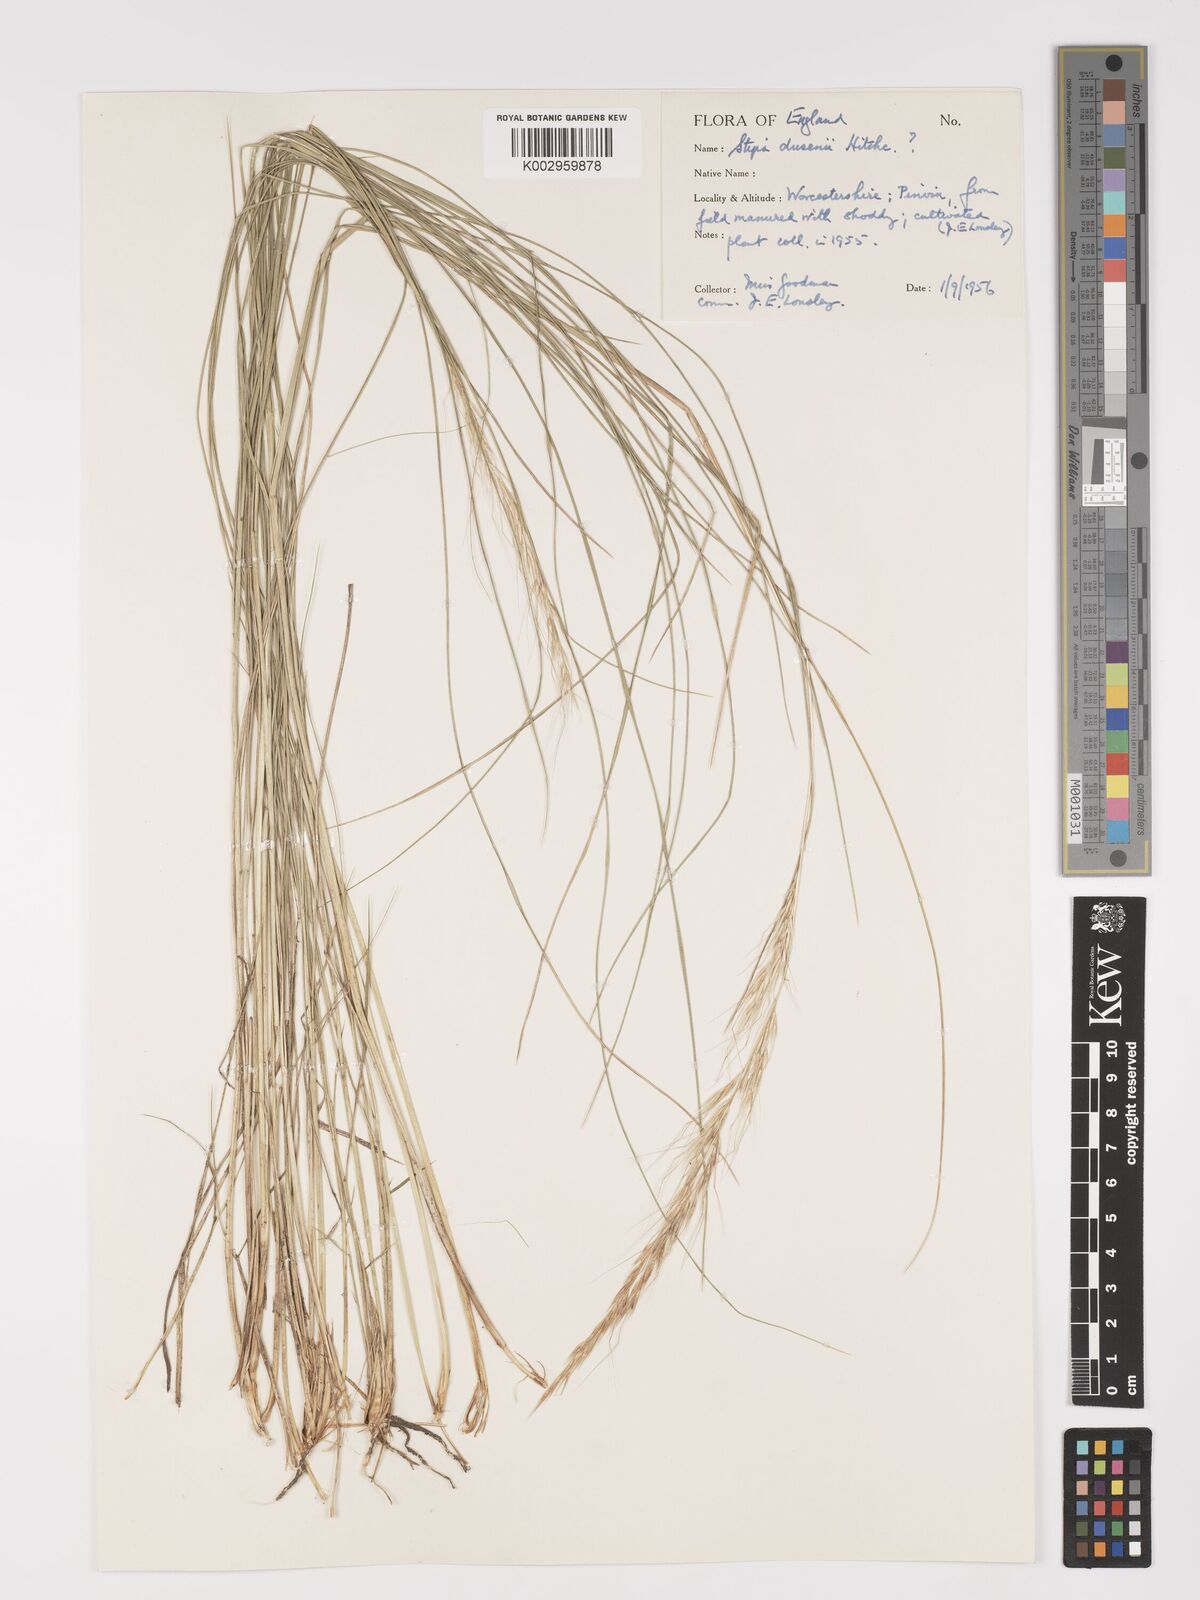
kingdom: Plantae
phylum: Tracheophyta
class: Liliopsida
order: Poales
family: Poaceae
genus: Amelichloa
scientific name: Amelichloa ambigua
